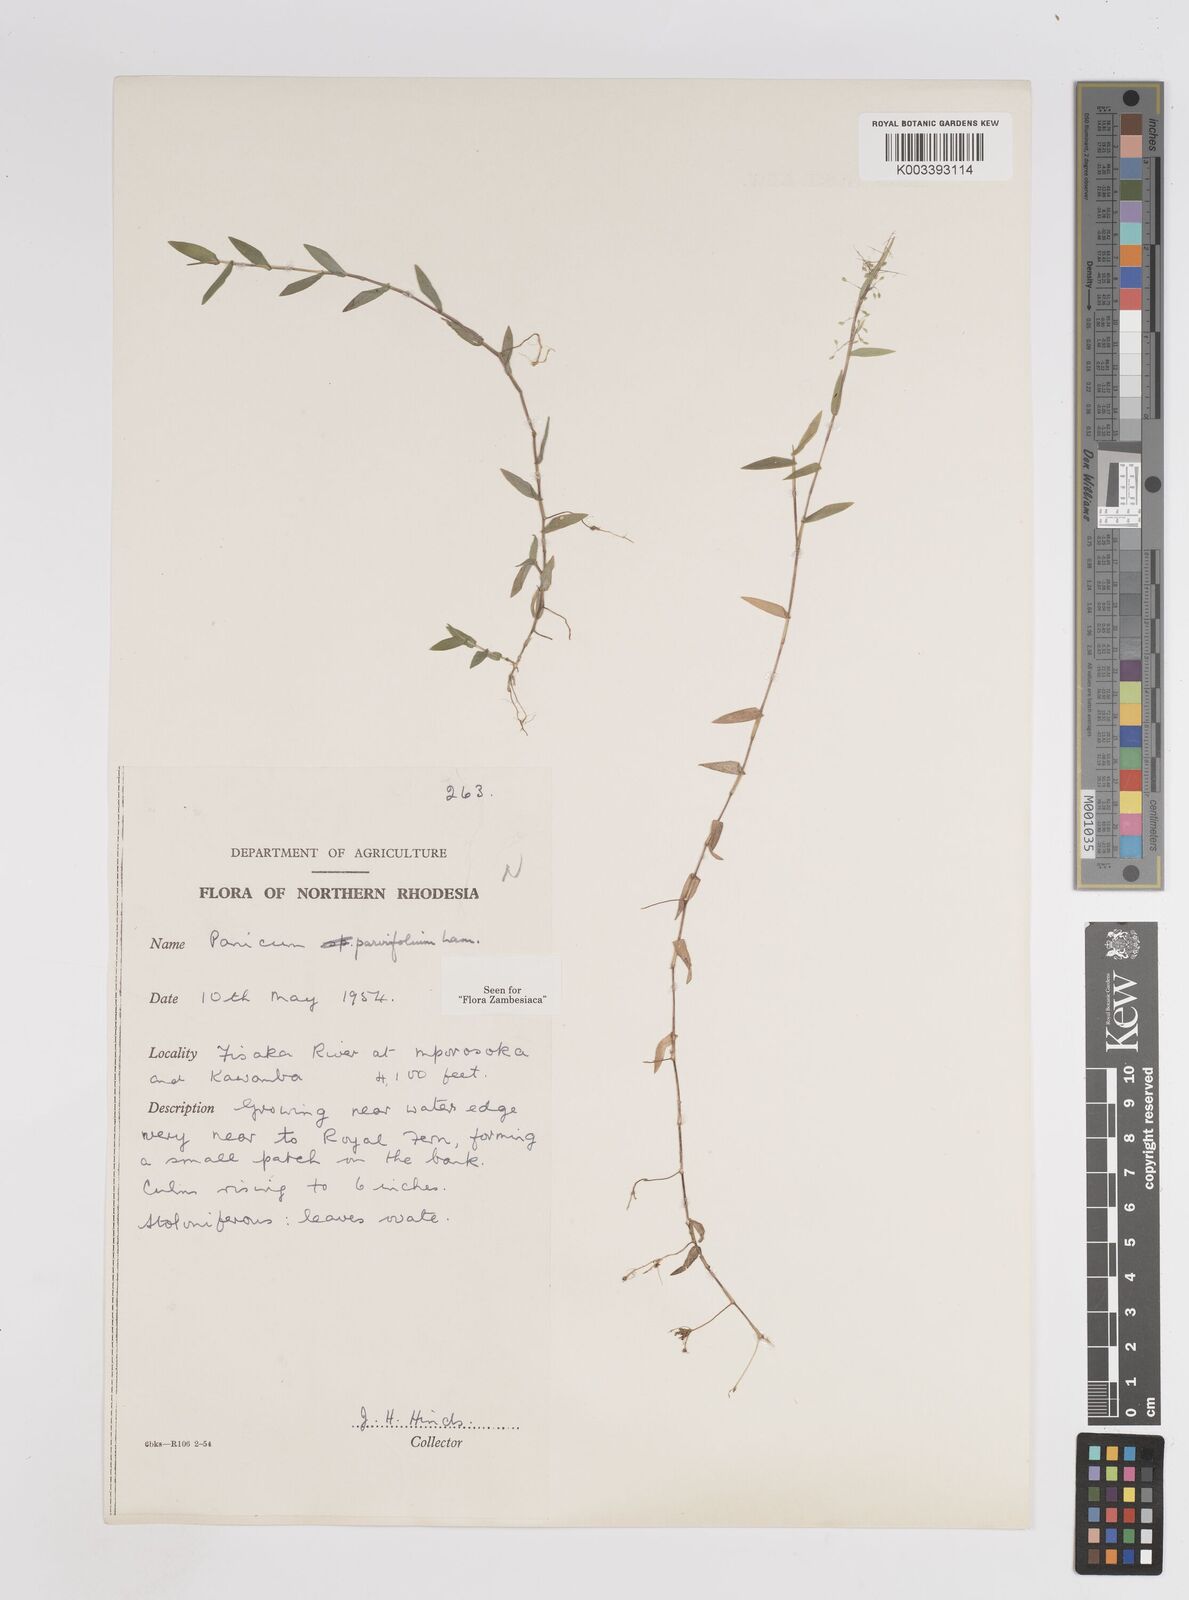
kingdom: Plantae
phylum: Tracheophyta
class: Liliopsida
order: Poales
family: Poaceae
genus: Trichanthecium
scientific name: Trichanthecium parvifolium
